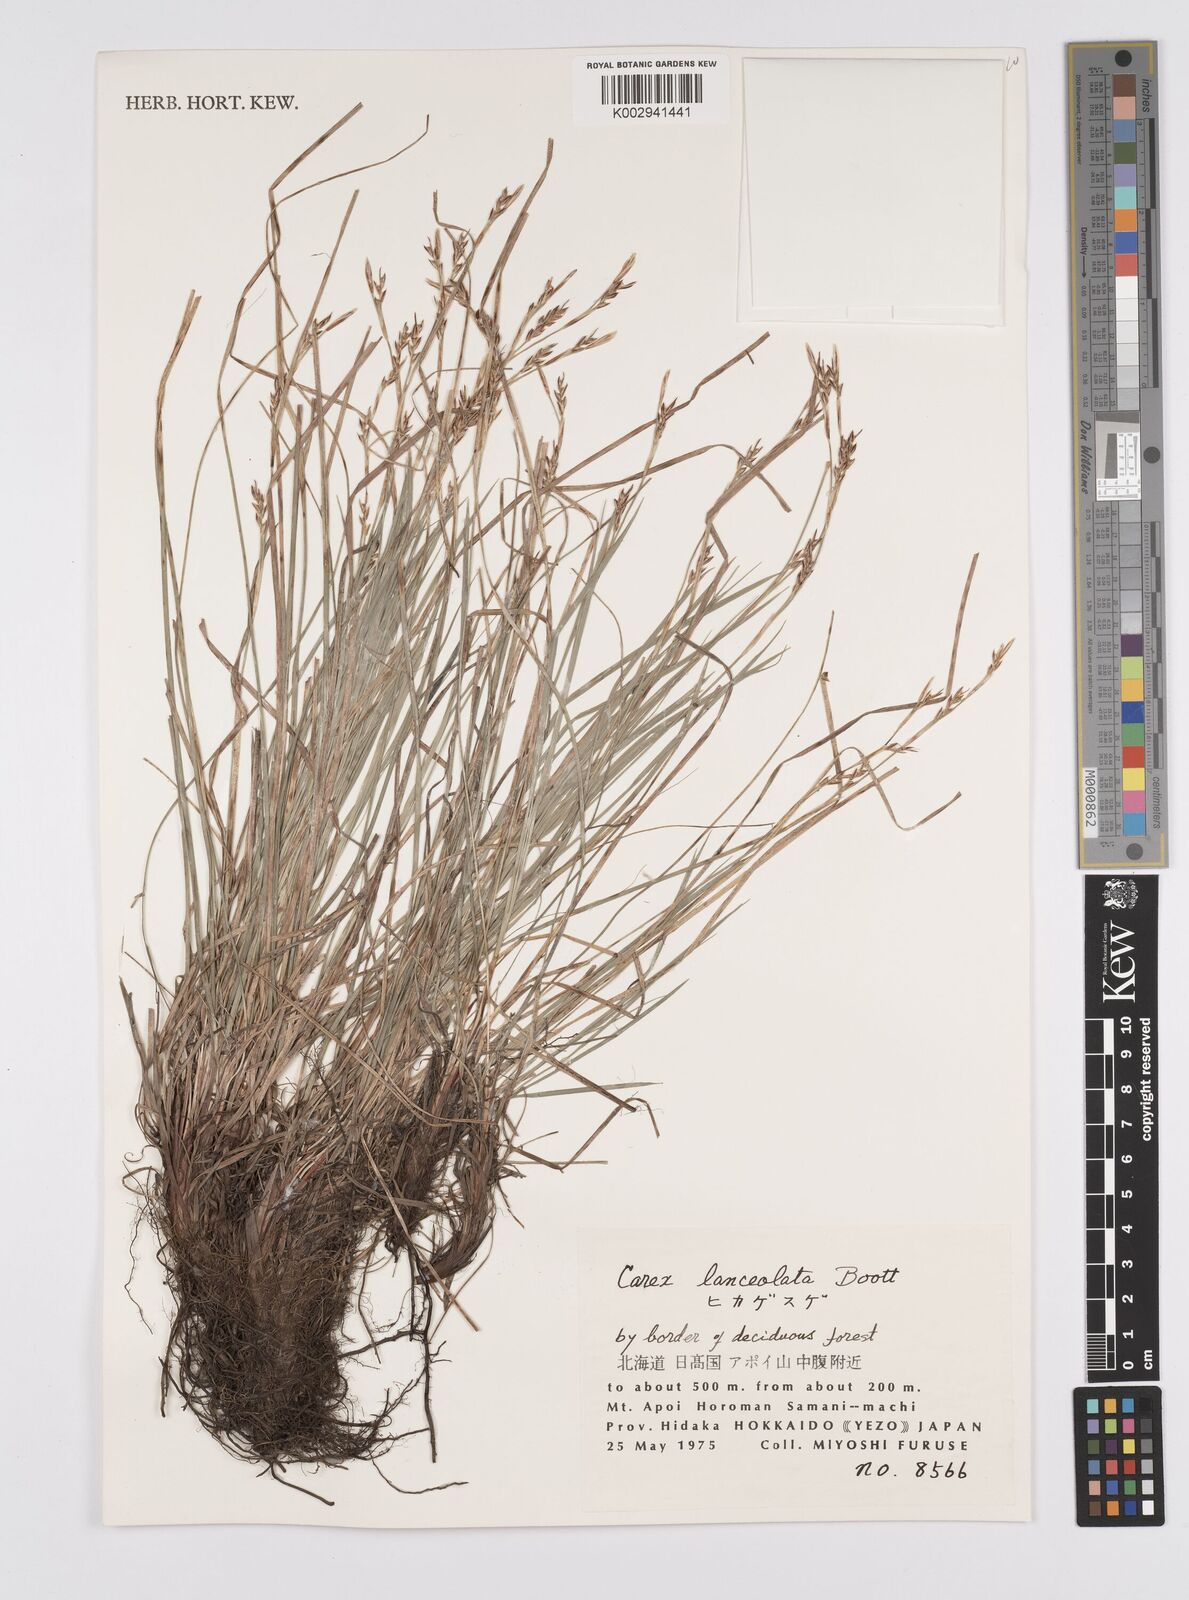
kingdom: Plantae
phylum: Tracheophyta
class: Liliopsida
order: Poales
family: Cyperaceae
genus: Carex
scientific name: Carex lanceolata
